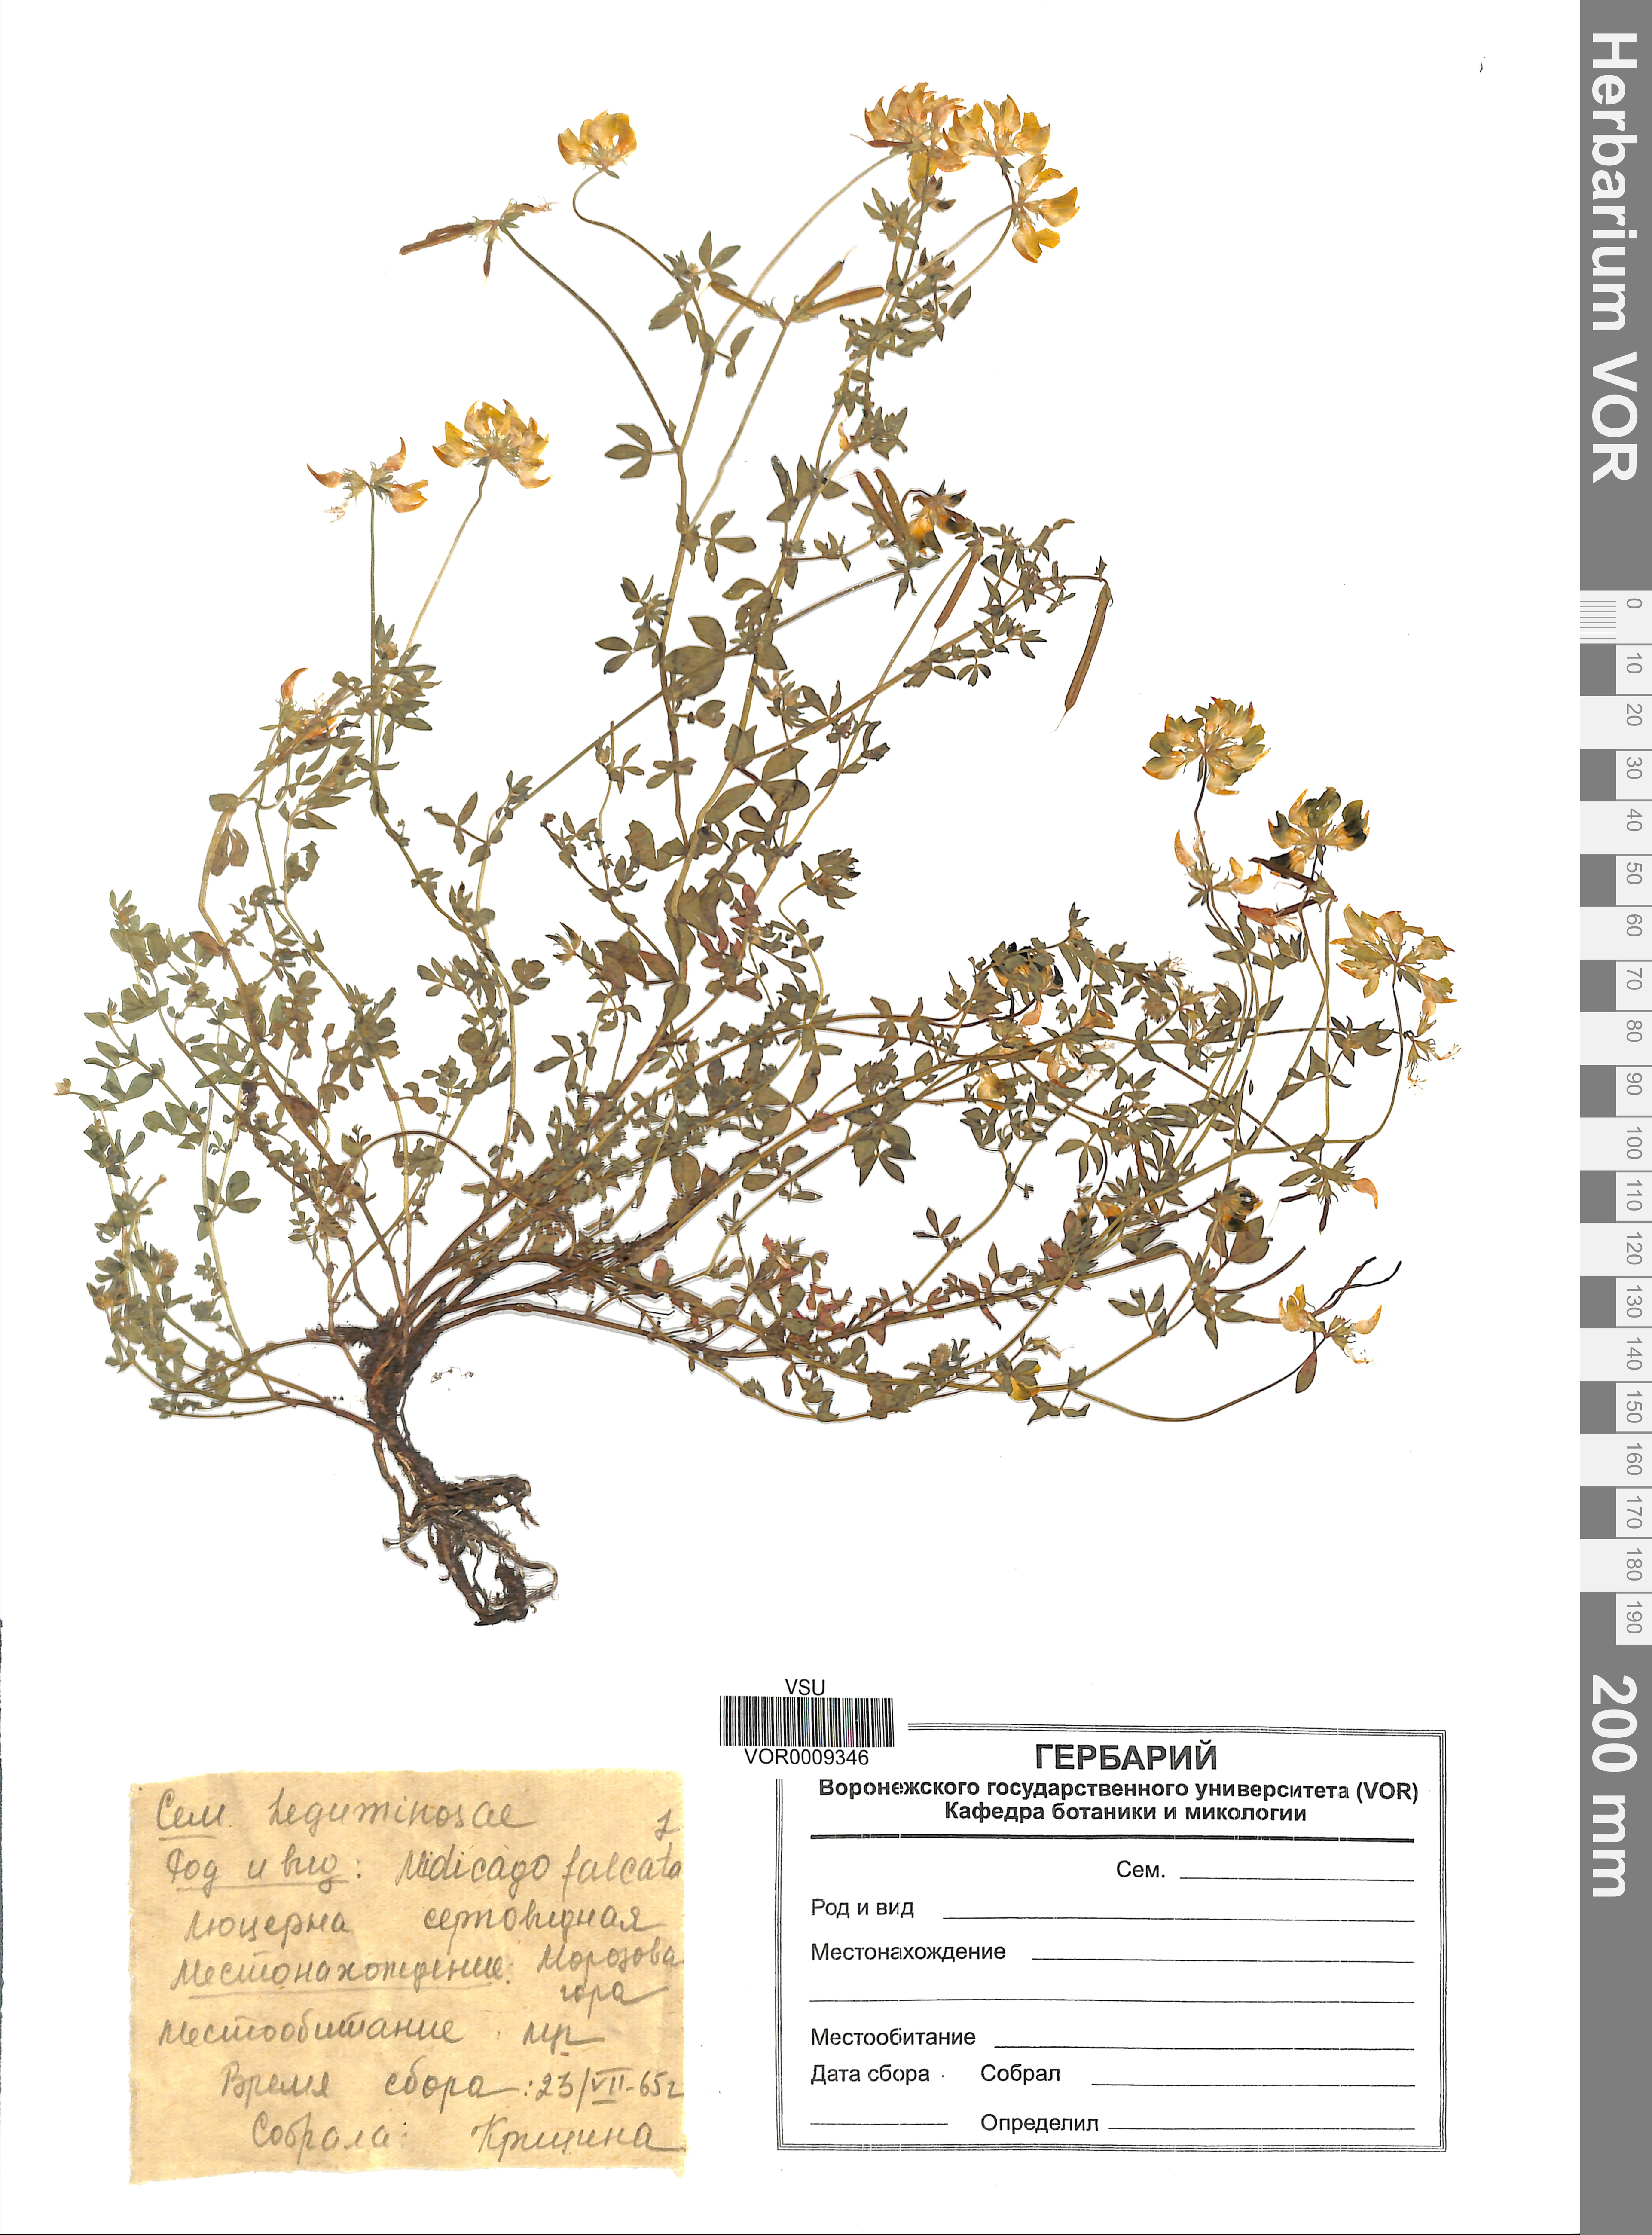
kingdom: Plantae
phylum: Tracheophyta
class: Magnoliopsida
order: Fabales
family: Fabaceae
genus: Medicago
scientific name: Medicago falcata
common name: Sickle medick
